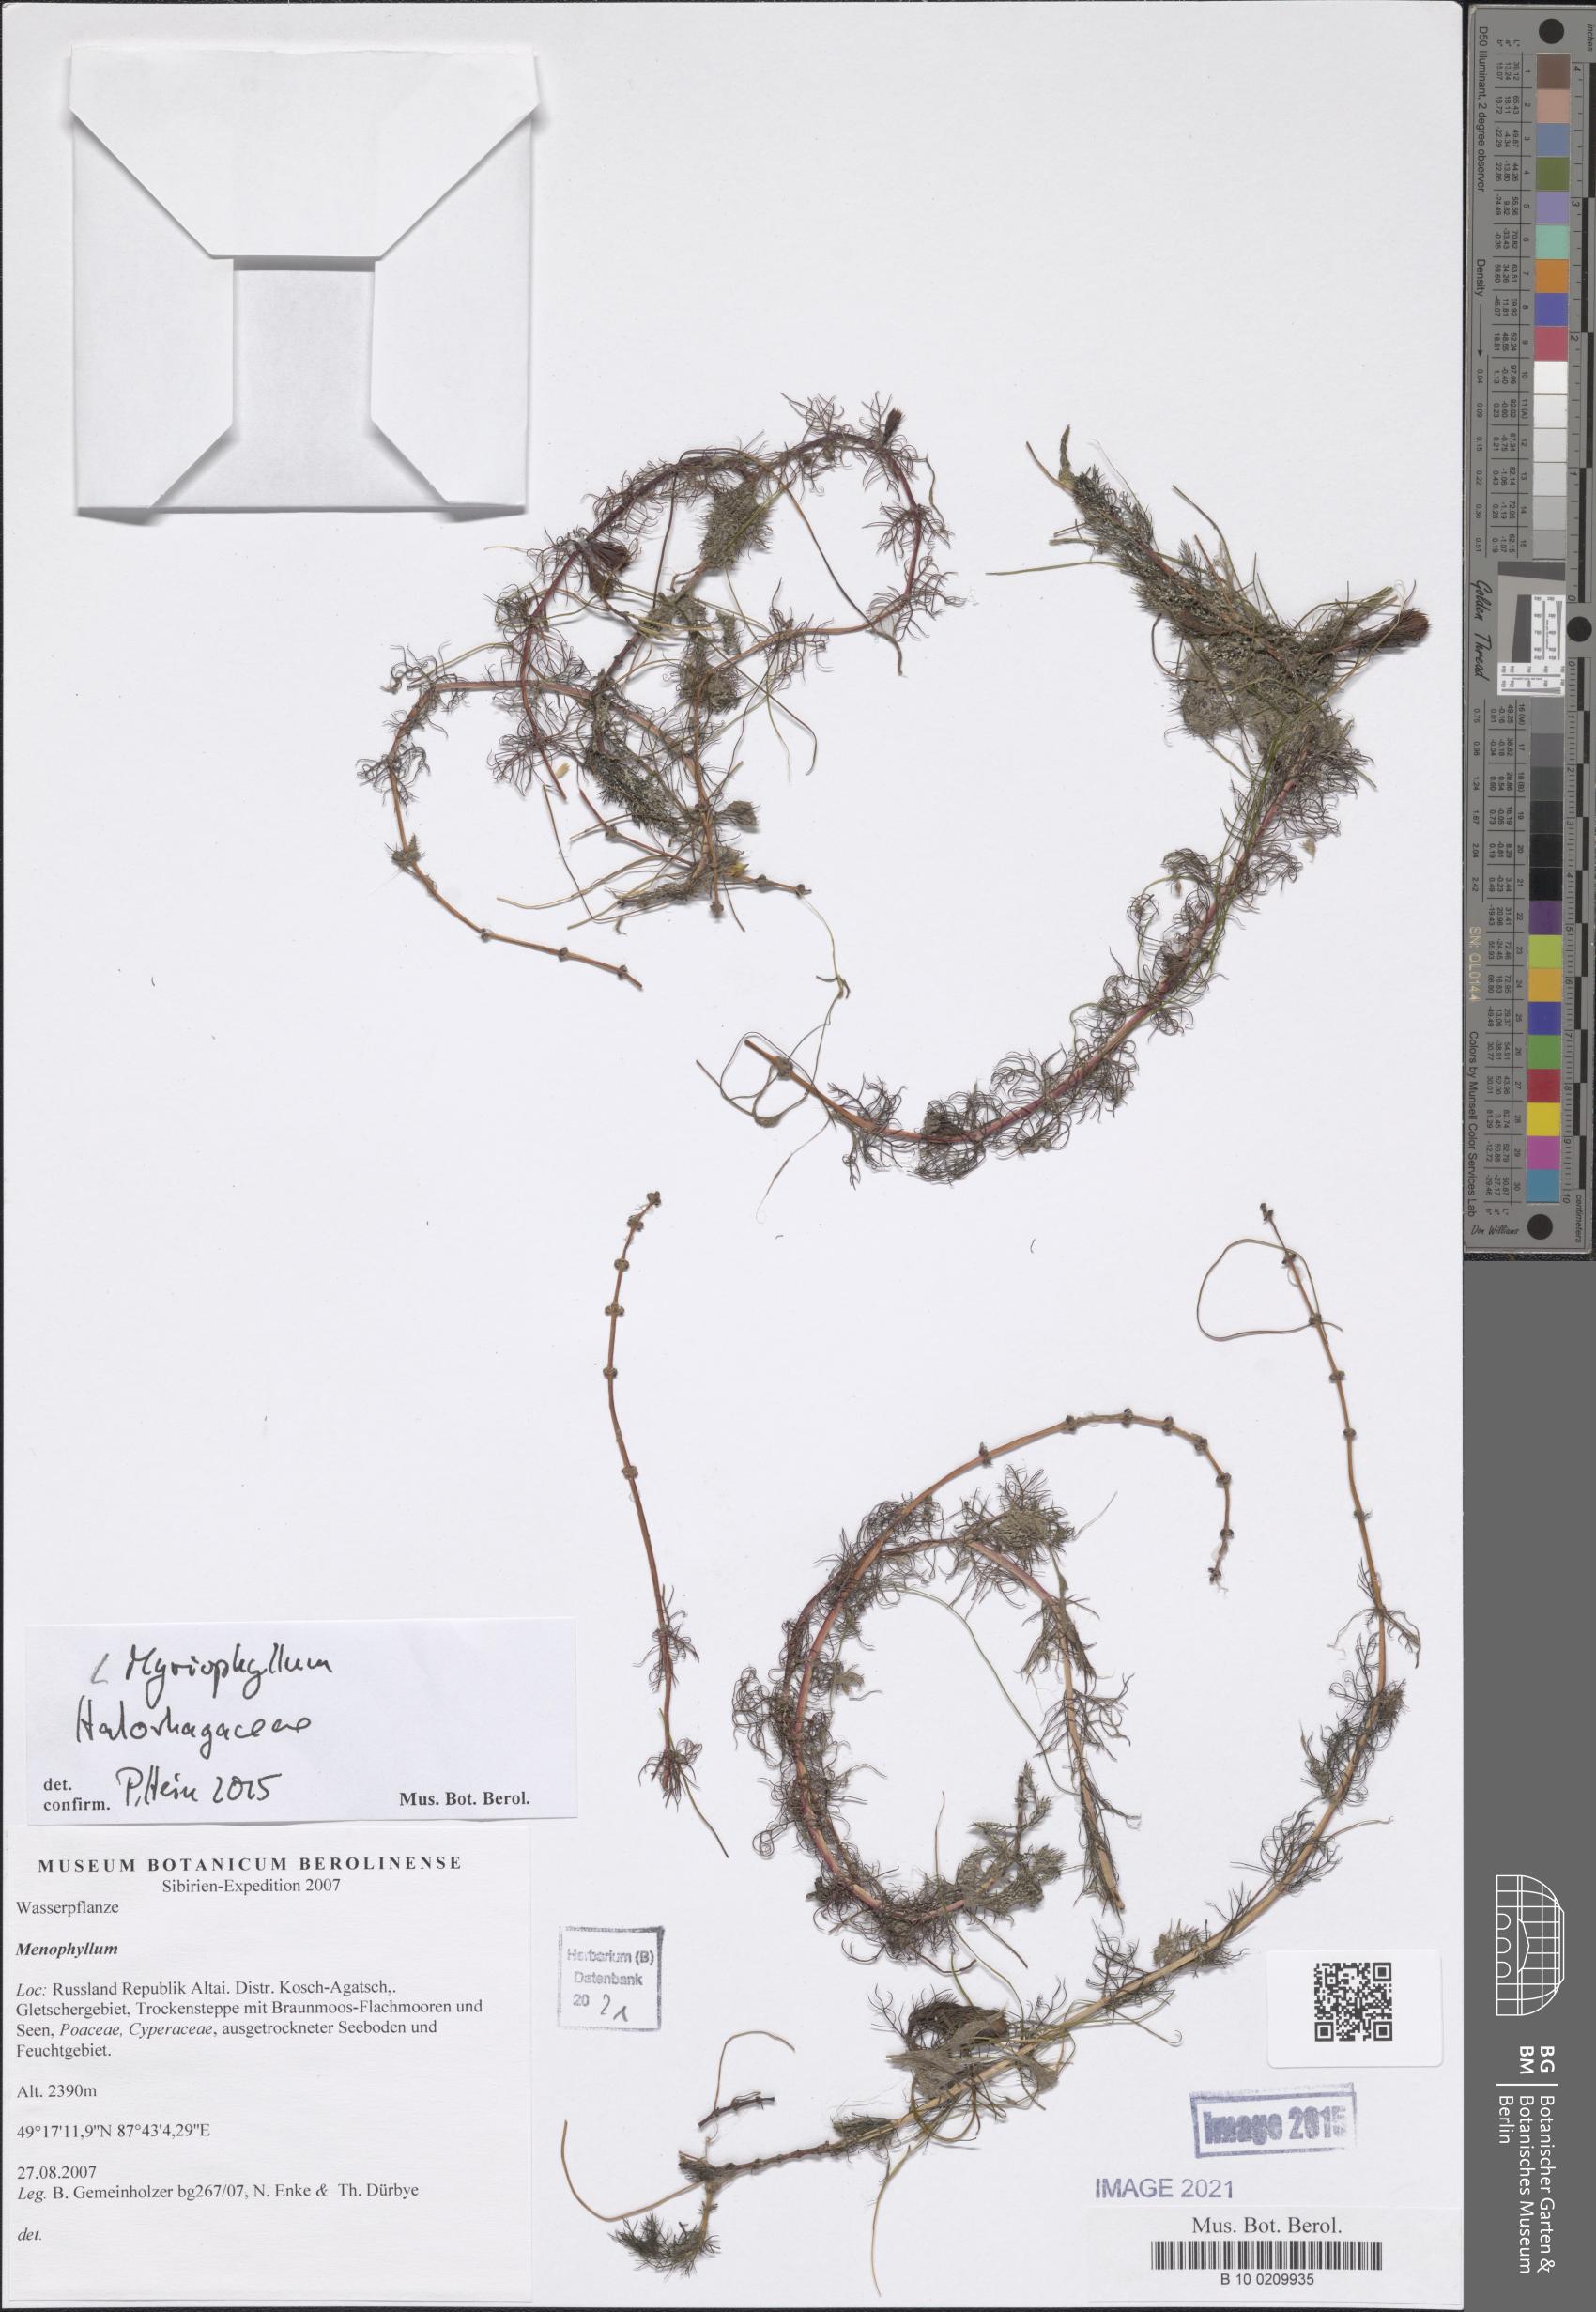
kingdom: Plantae
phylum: Tracheophyta
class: Magnoliopsida
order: Saxifragales
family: Haloragaceae
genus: Myriophyllum
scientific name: Myriophyllum
